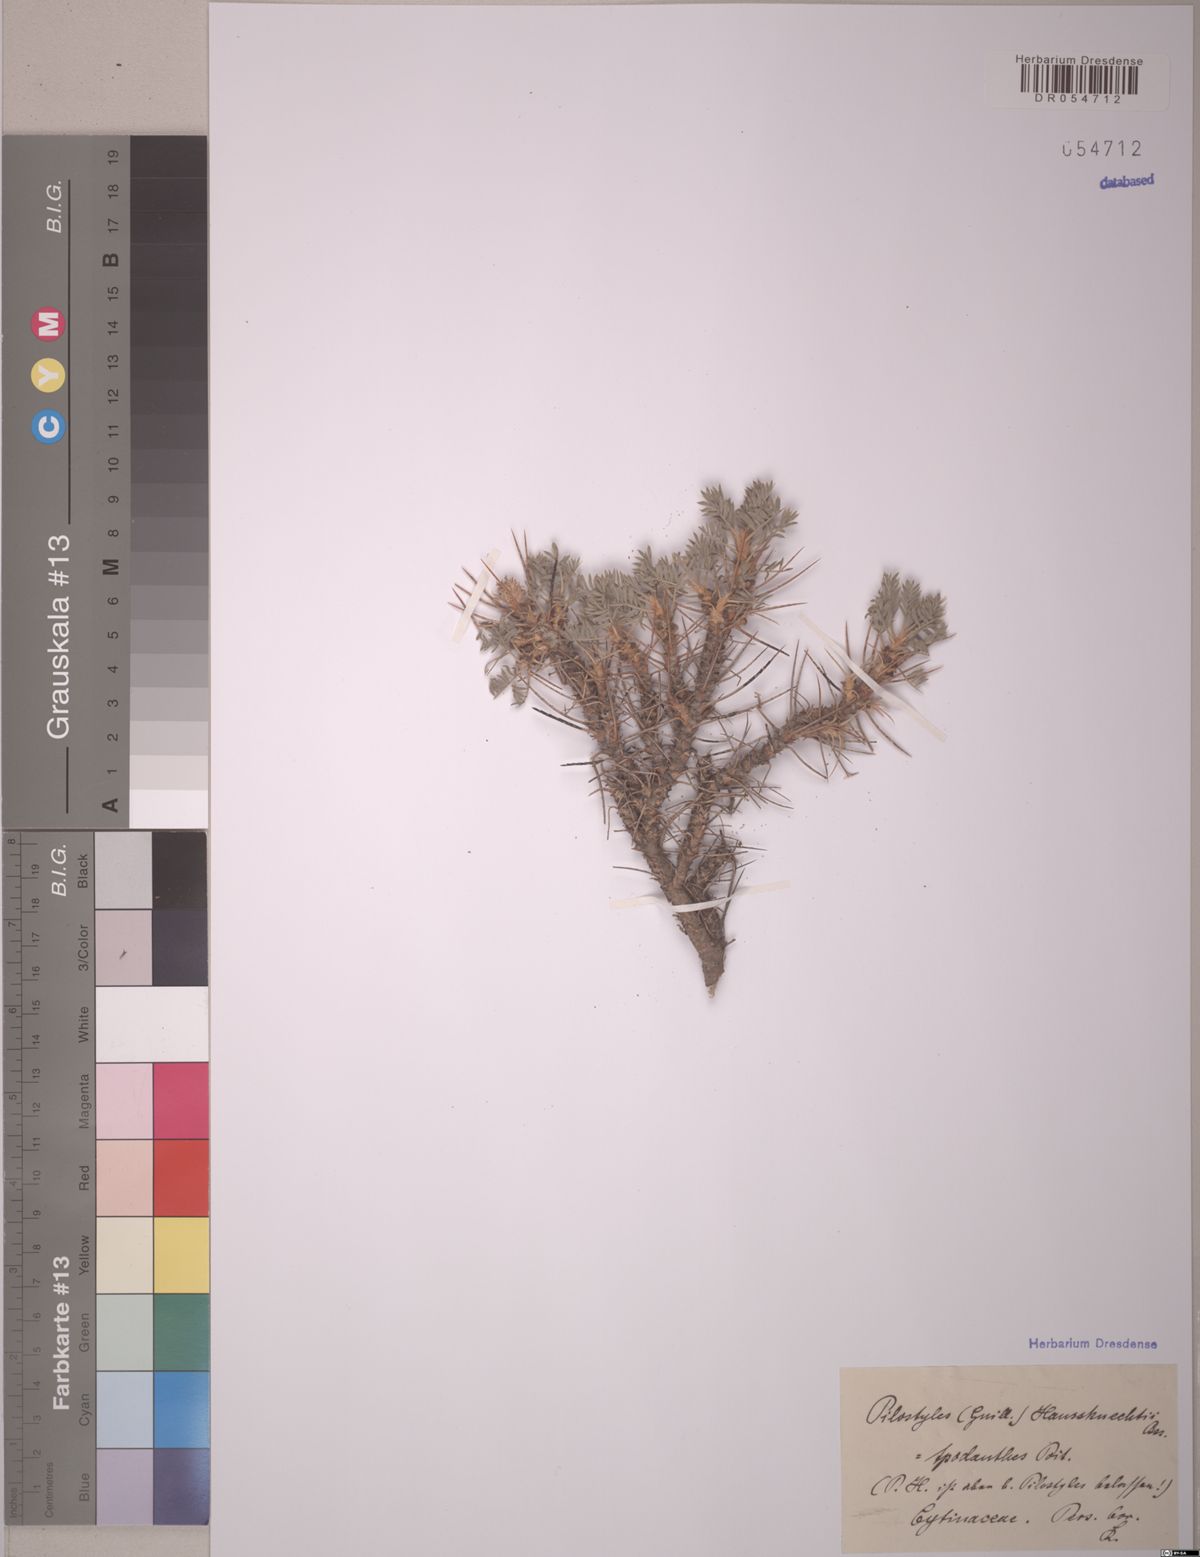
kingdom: Plantae
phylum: Tracheophyta
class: Magnoliopsida
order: Cucurbitales
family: Apodanthaceae
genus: Pilostyles
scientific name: Pilostyles haussknechtii
